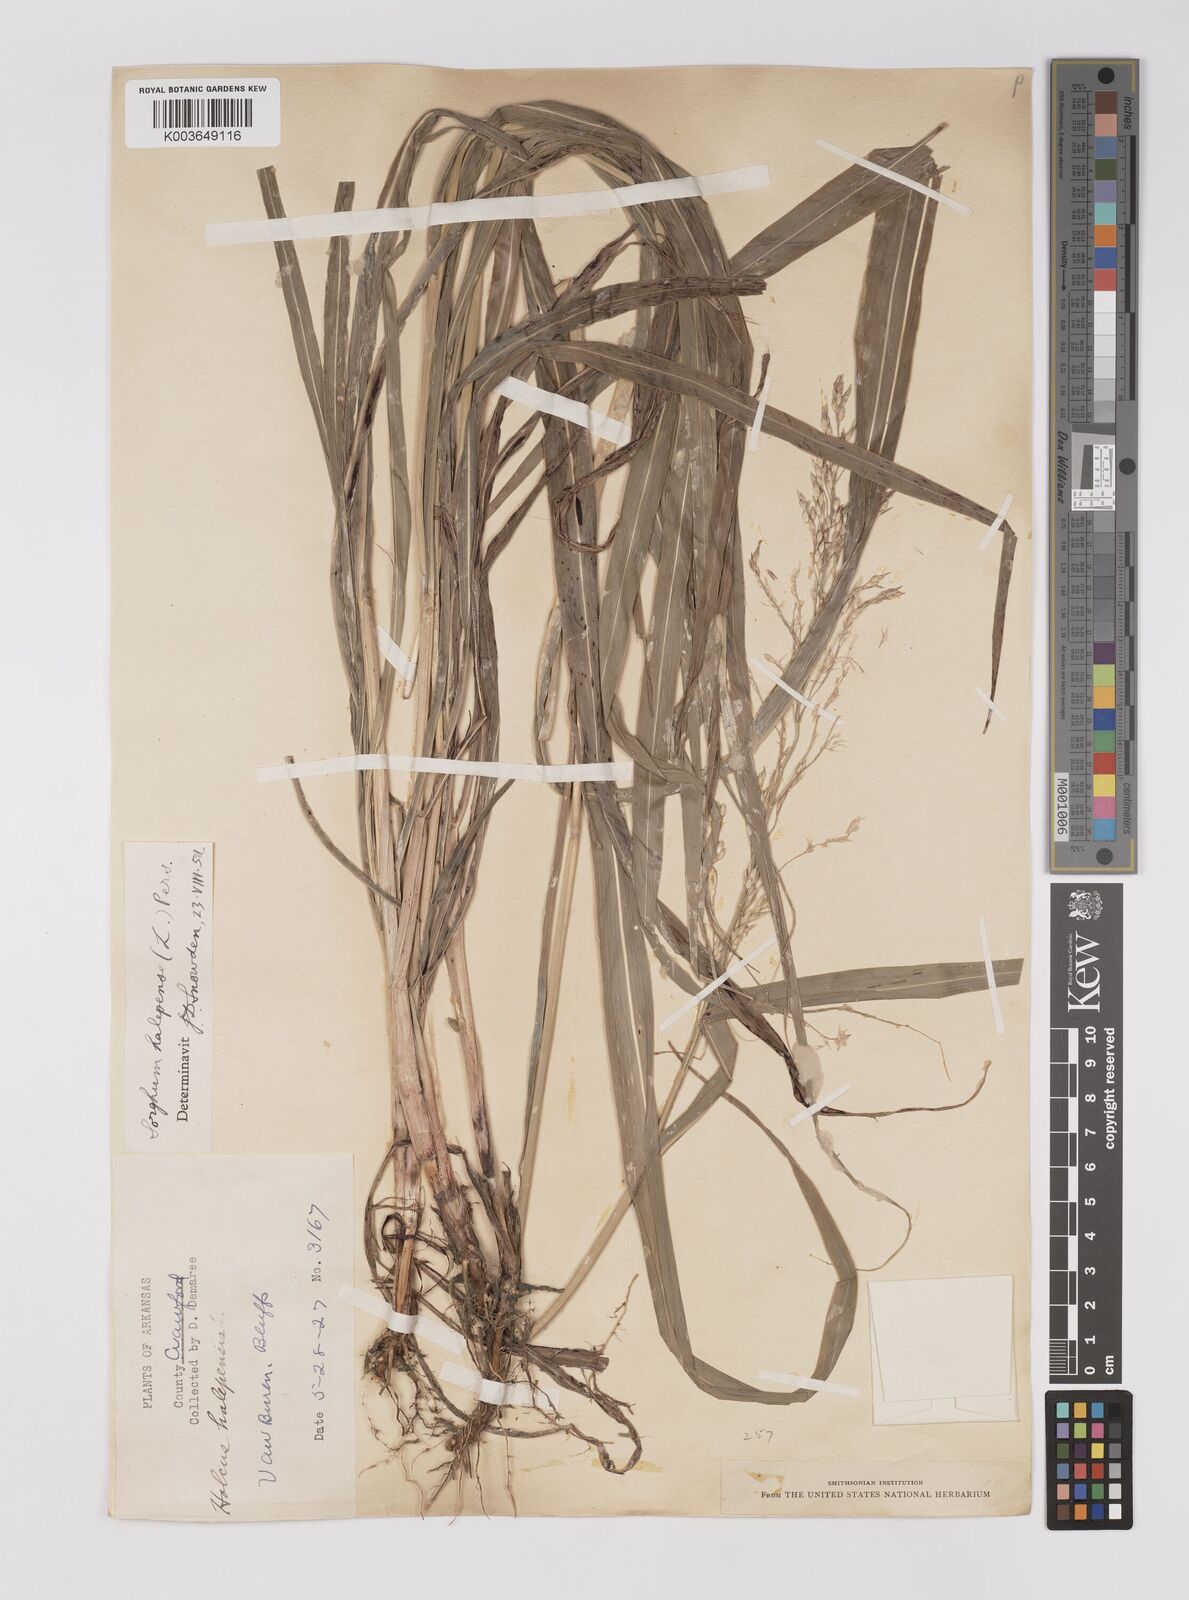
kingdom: Plantae
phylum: Tracheophyta
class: Liliopsida
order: Poales
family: Poaceae
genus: Sorghum
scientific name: Sorghum halepense
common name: Johnson-grass
